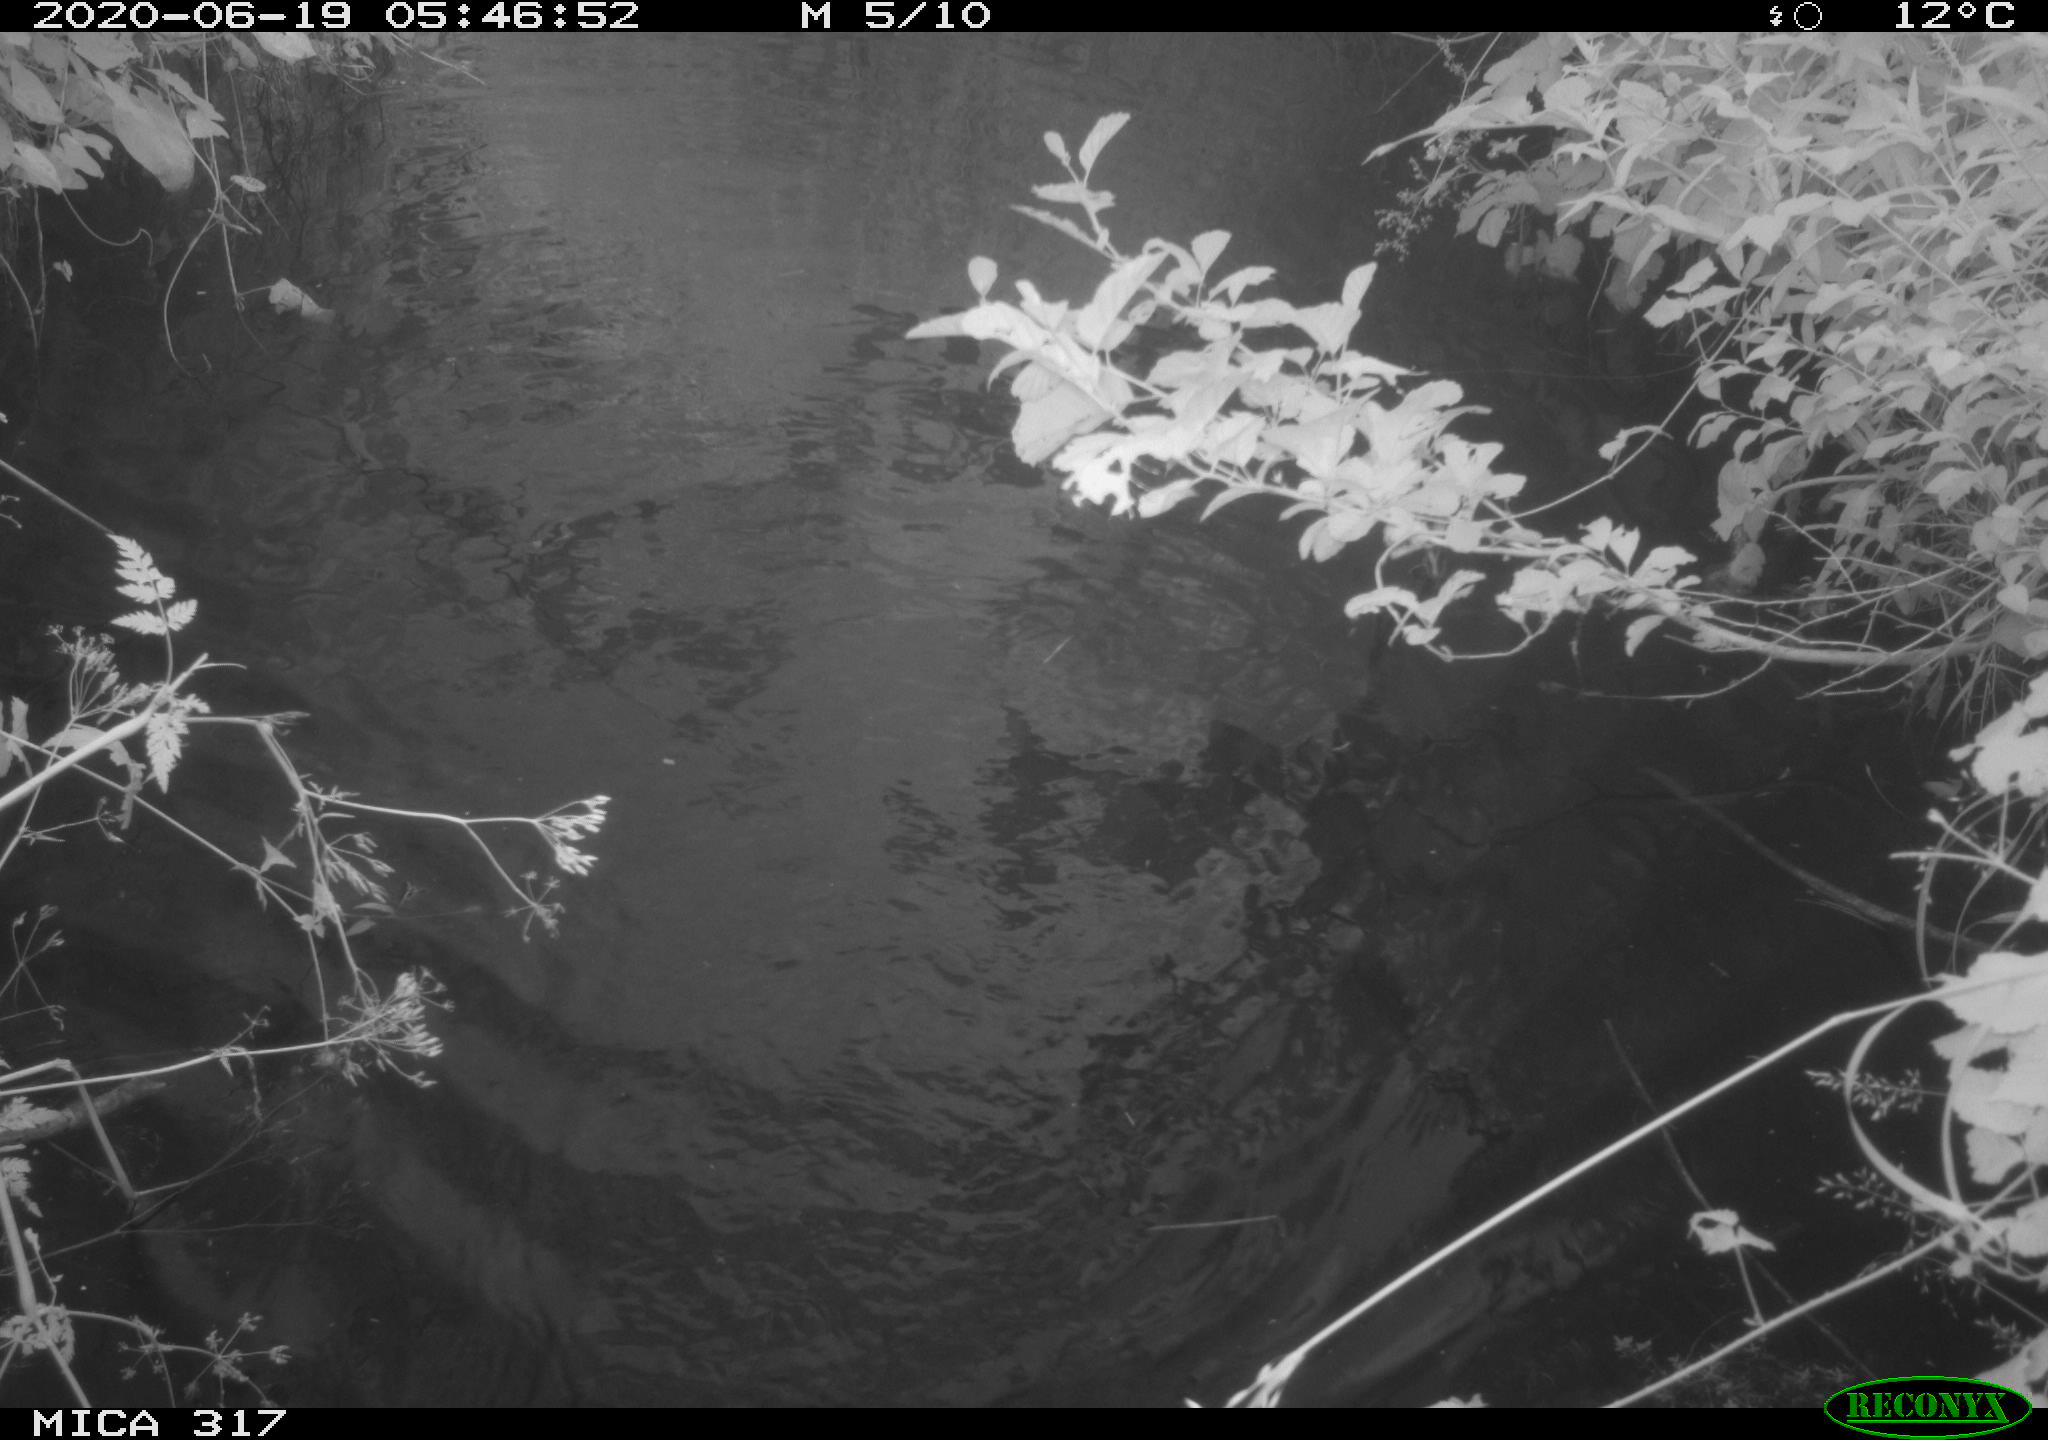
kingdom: Animalia
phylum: Chordata
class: Aves
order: Anseriformes
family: Anatidae
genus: Anas
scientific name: Anas platyrhynchos
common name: Mallard
